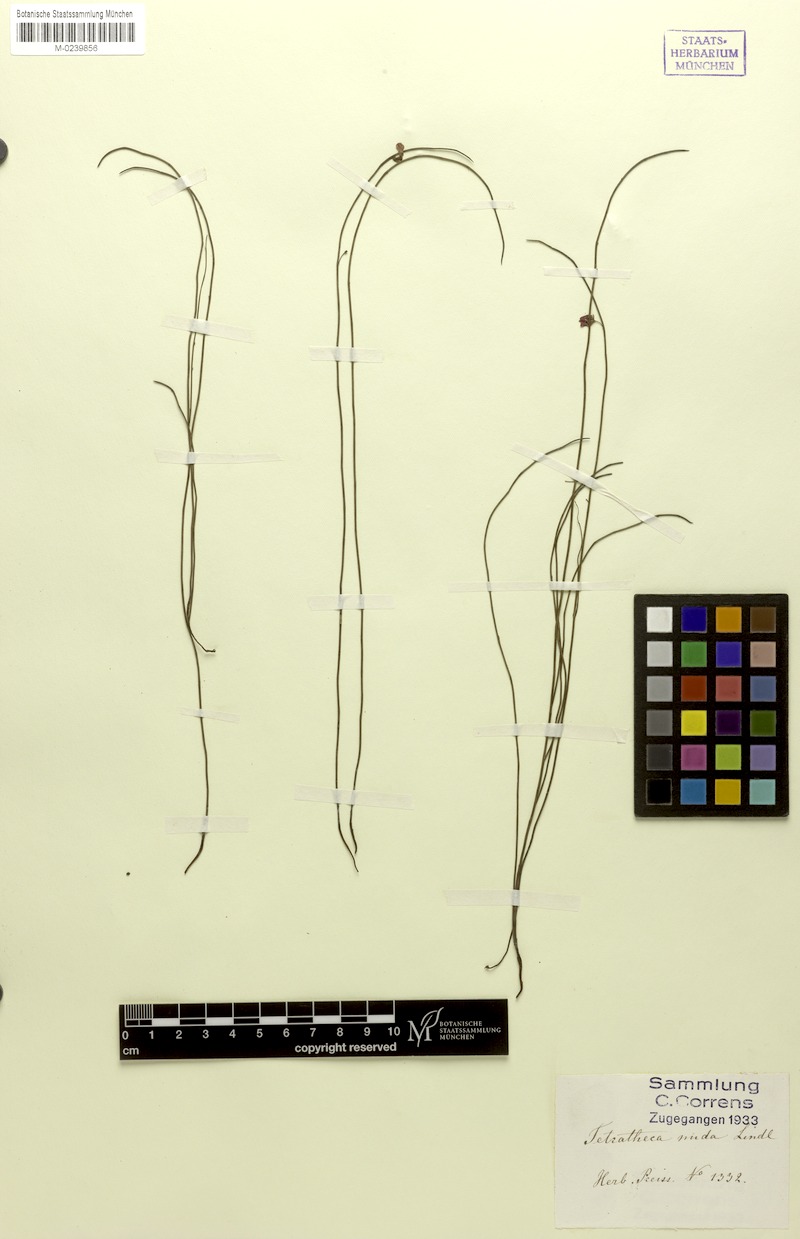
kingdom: Plantae
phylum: Tracheophyta
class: Magnoliopsida
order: Oxalidales
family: Elaeocarpaceae
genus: Tetratheca
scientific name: Tetratheca nuda
